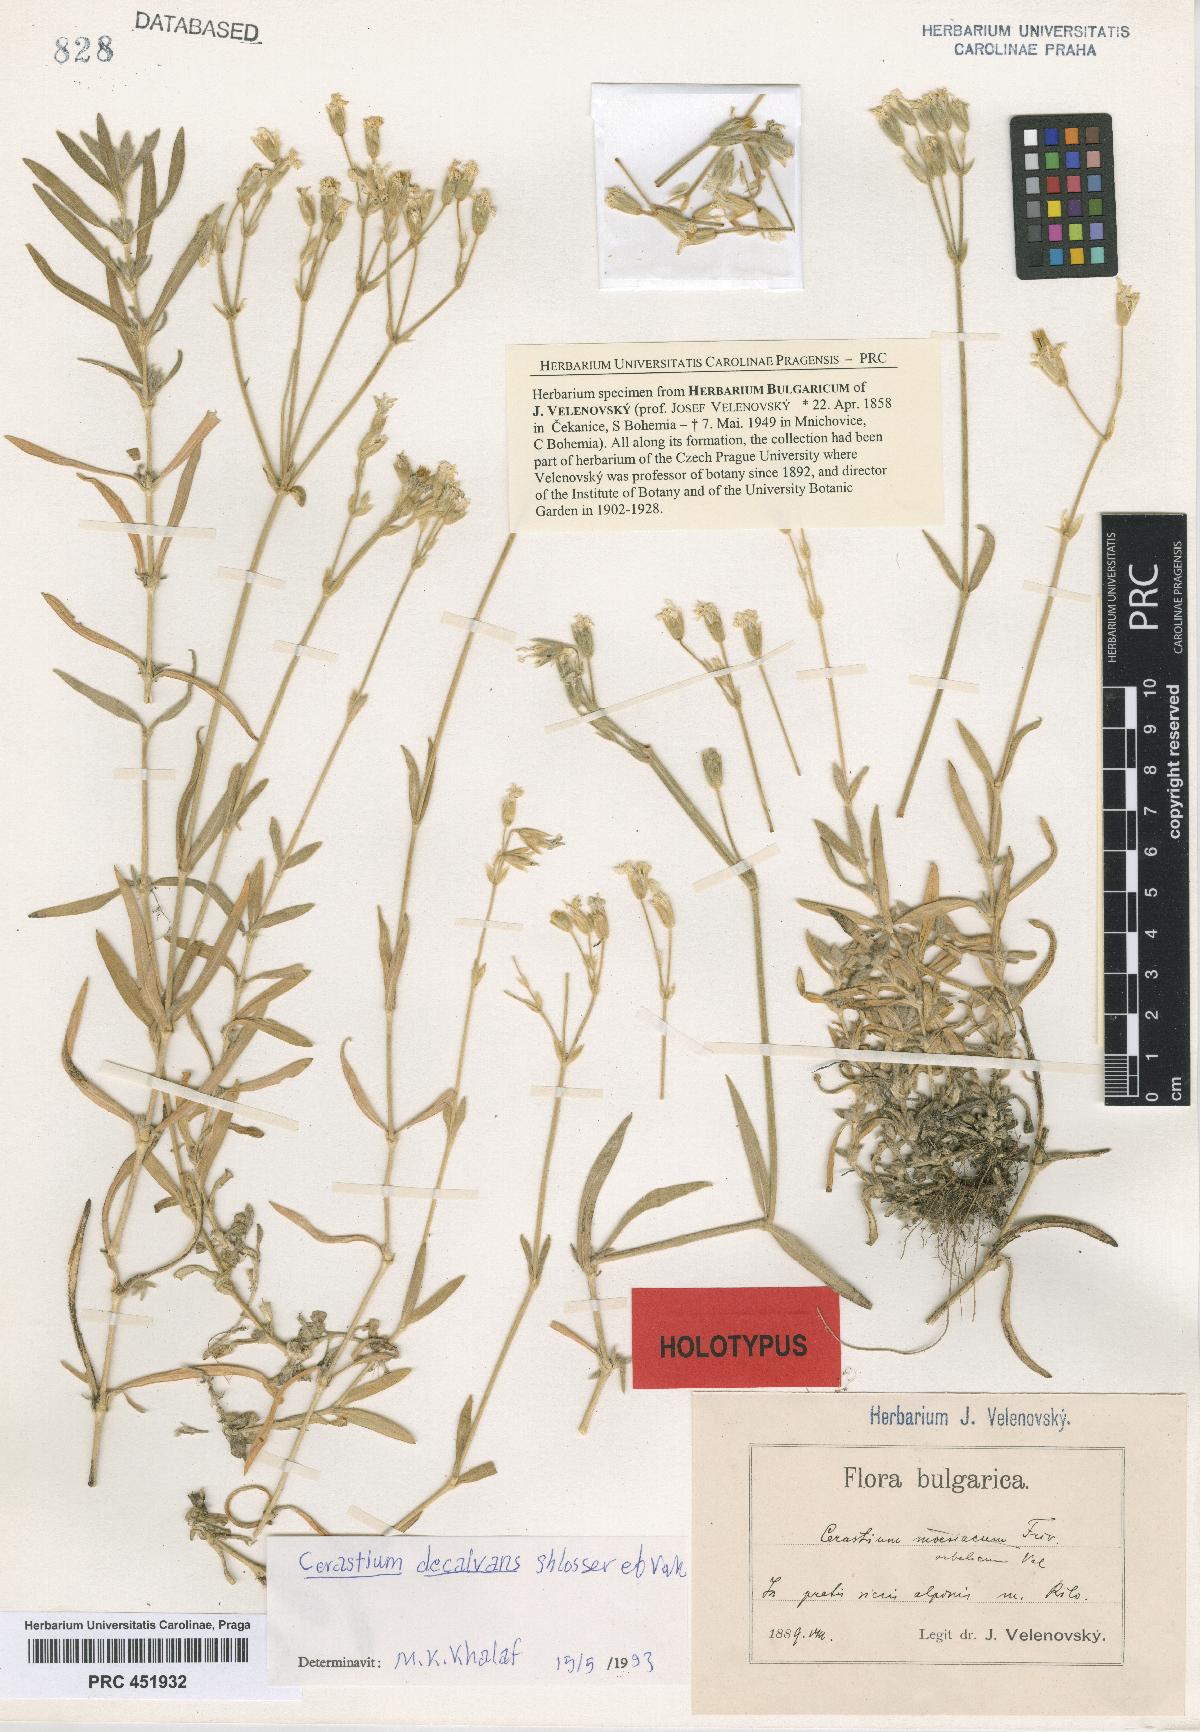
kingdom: Plantae
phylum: Tracheophyta
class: Magnoliopsida
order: Caryophyllales
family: Caryophyllaceae
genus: Cerastium
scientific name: Cerastium decalvans
